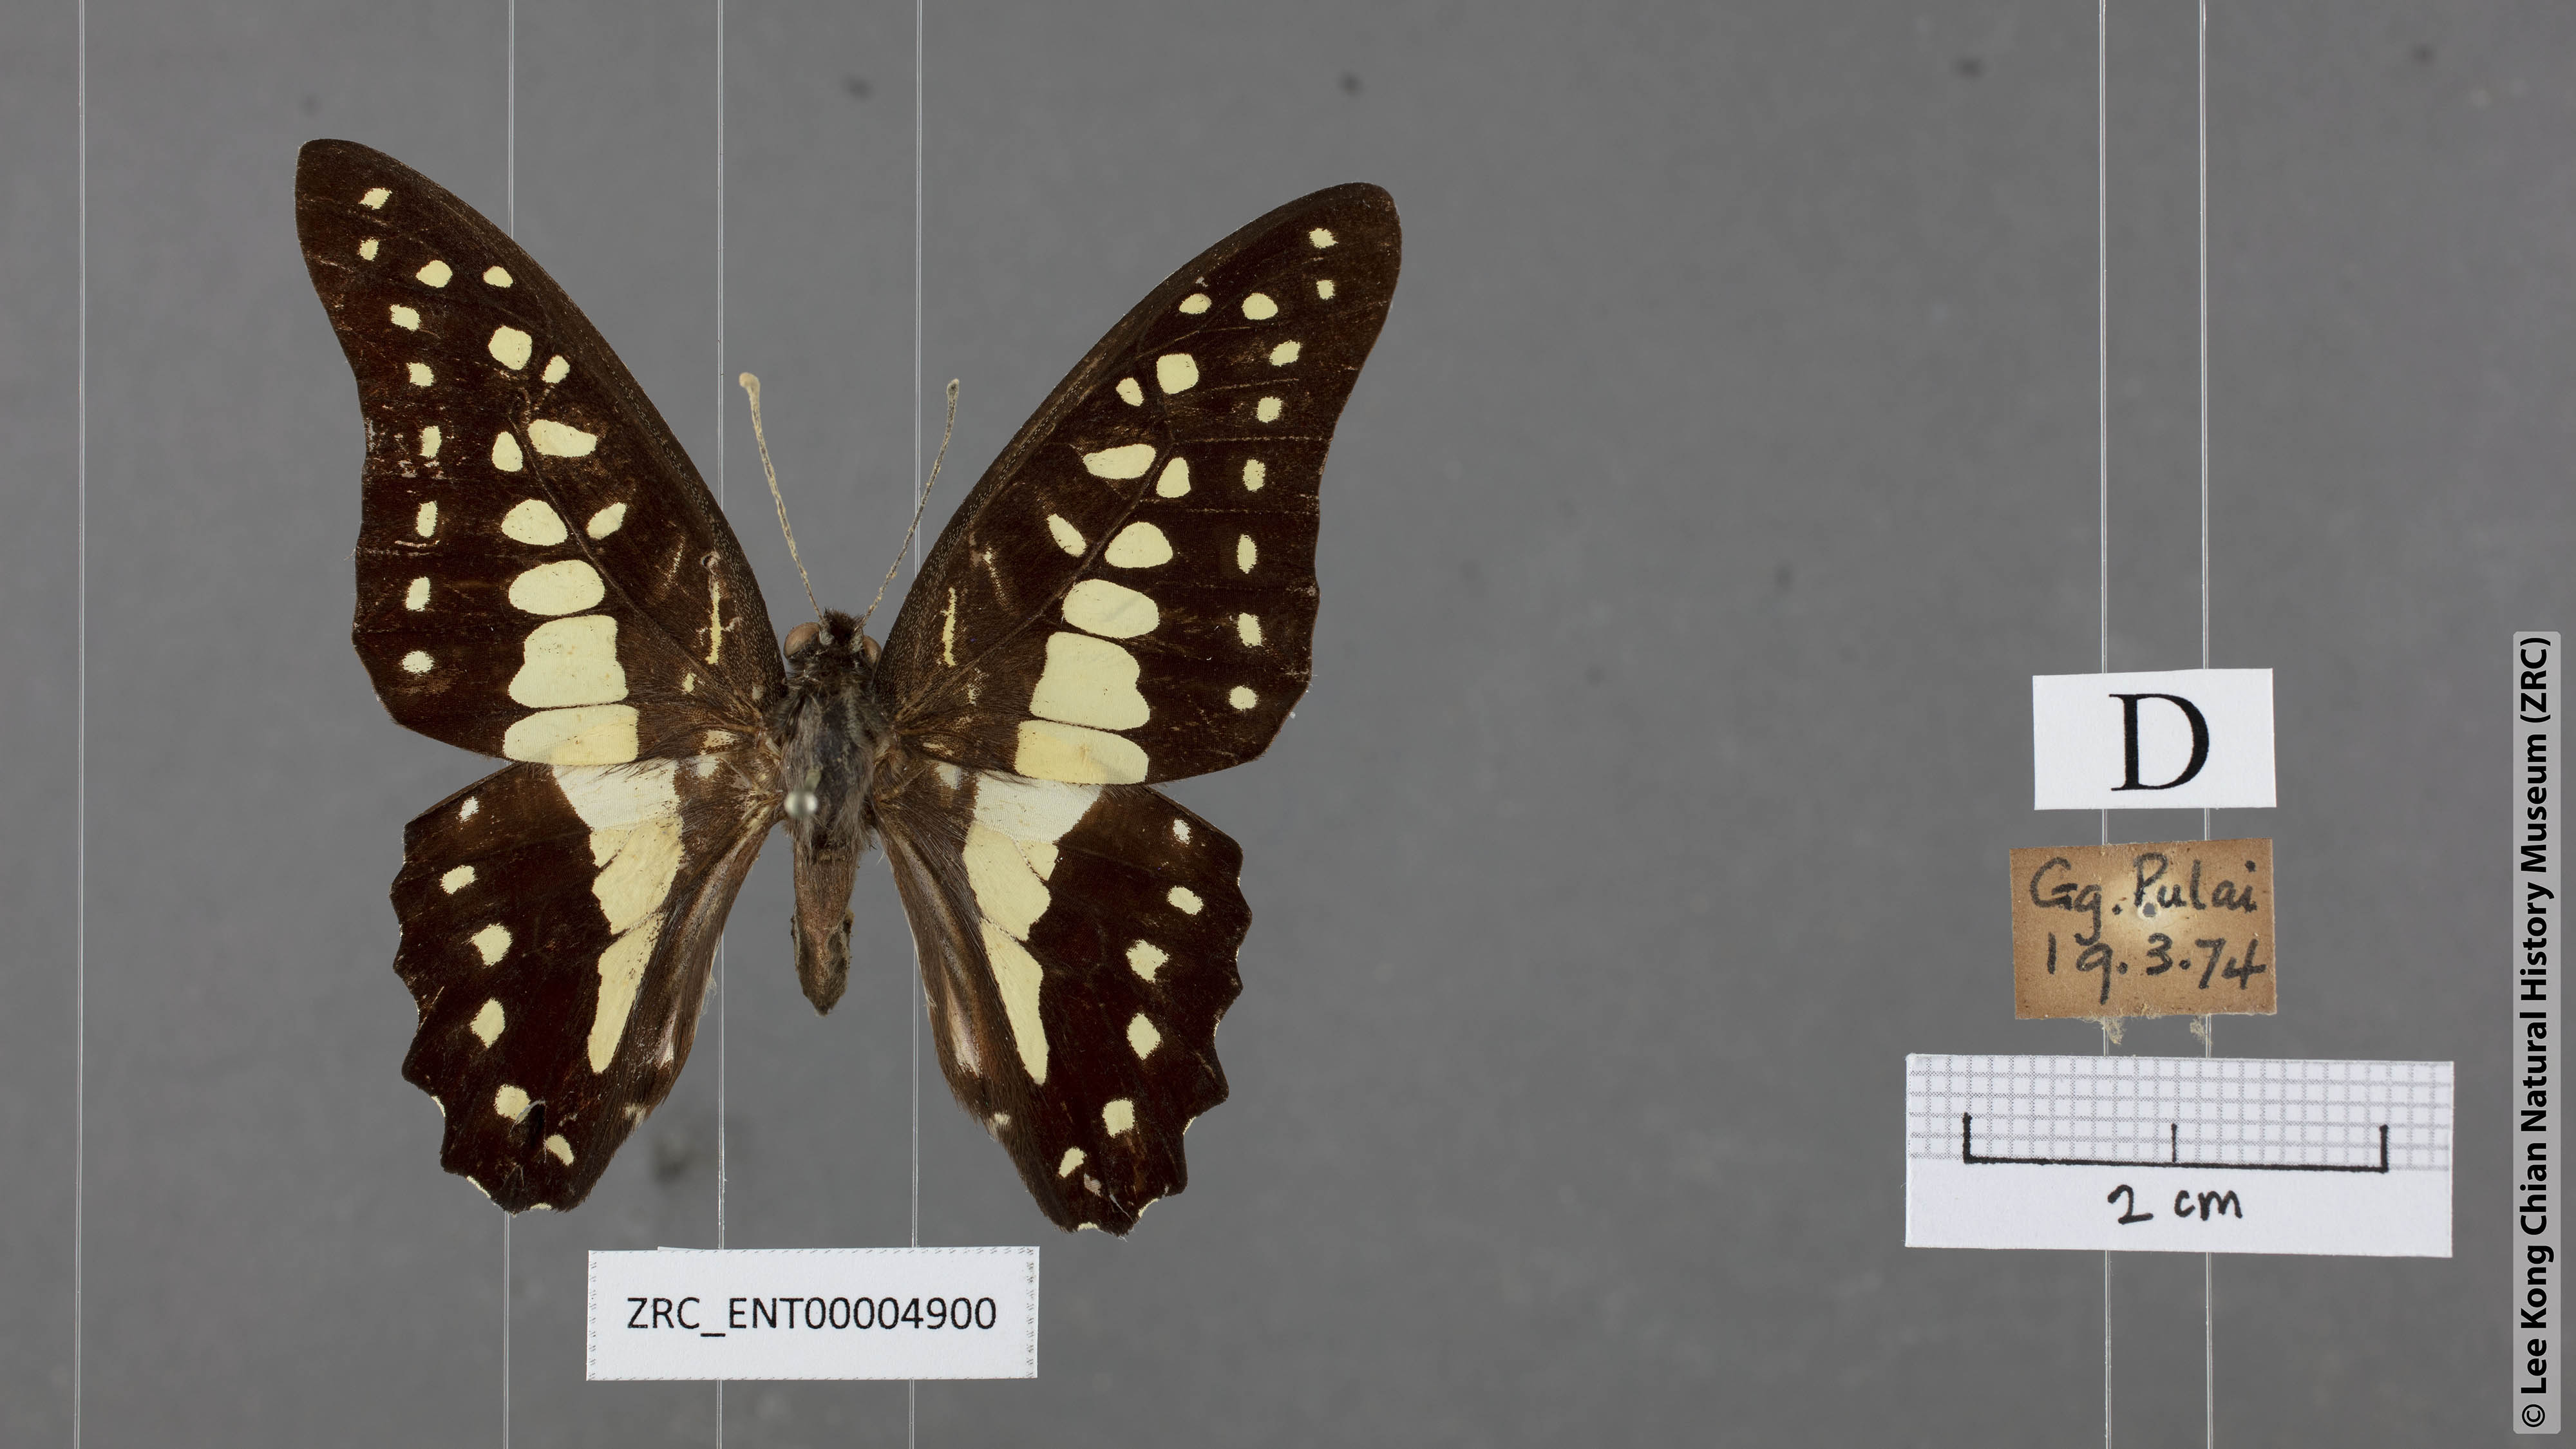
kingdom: Animalia
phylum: Arthropoda
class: Insecta
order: Lepidoptera
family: Papilionidae
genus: Graphium
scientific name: Graphium evemon
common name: Lesser jay
